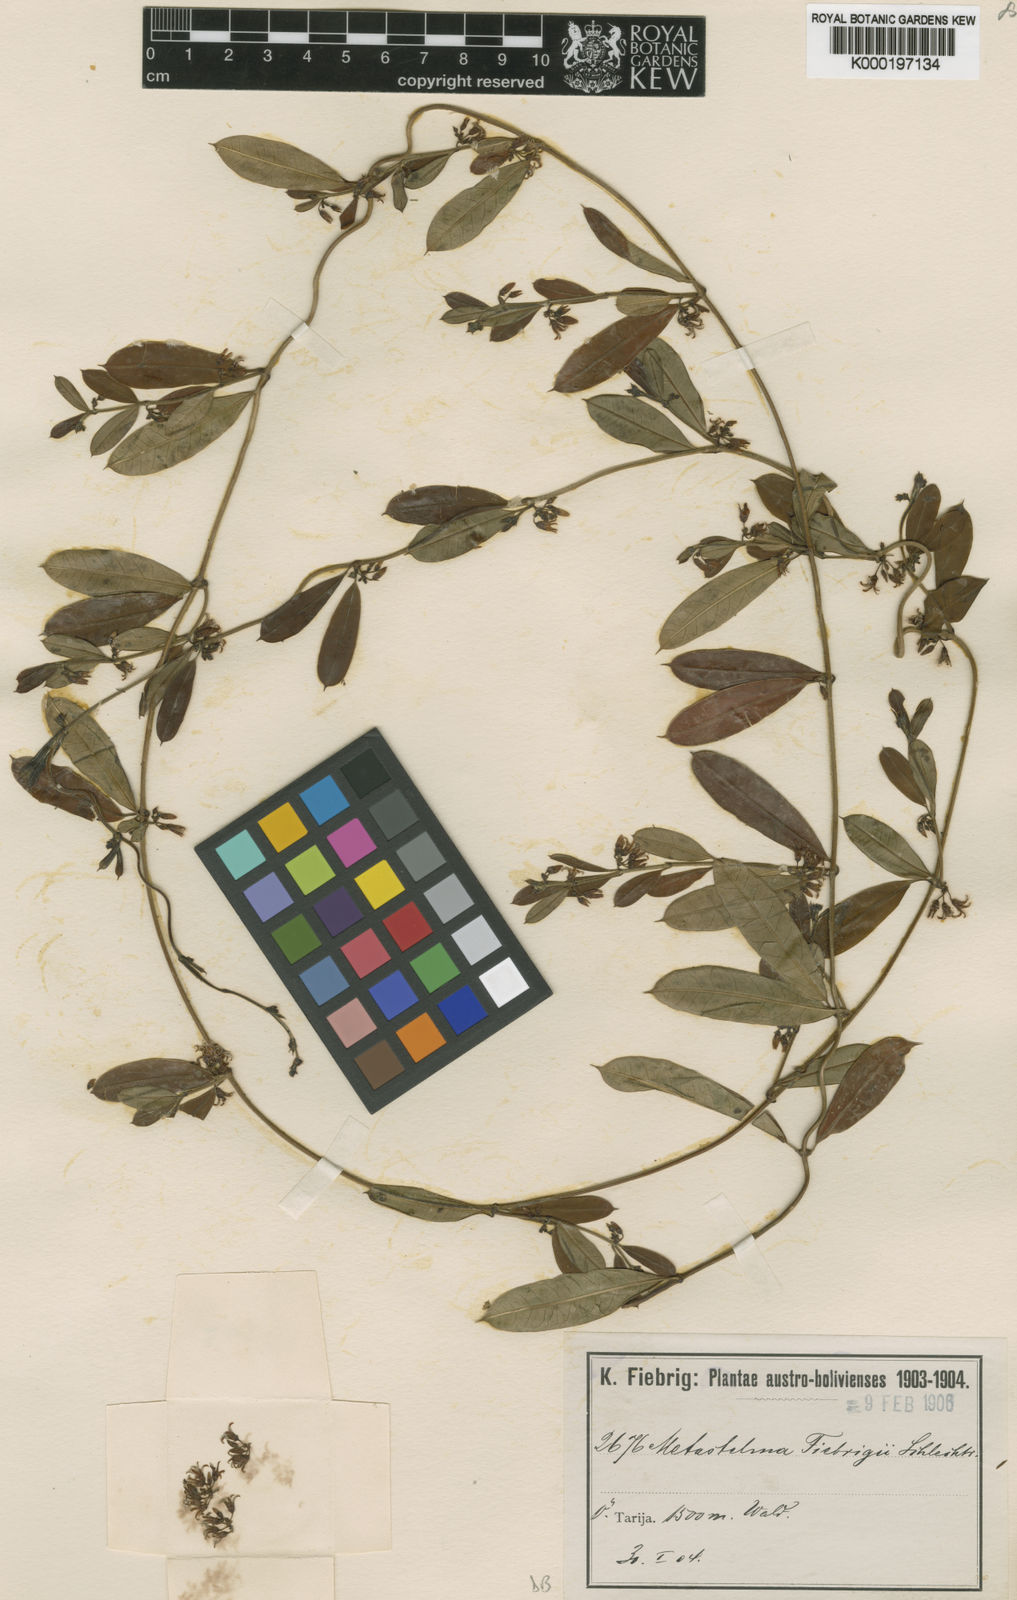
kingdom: Plantae
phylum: Tracheophyta
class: Magnoliopsida
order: Gentianales
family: Apocynaceae
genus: Metastelma
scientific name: Metastelma fiebrigii
